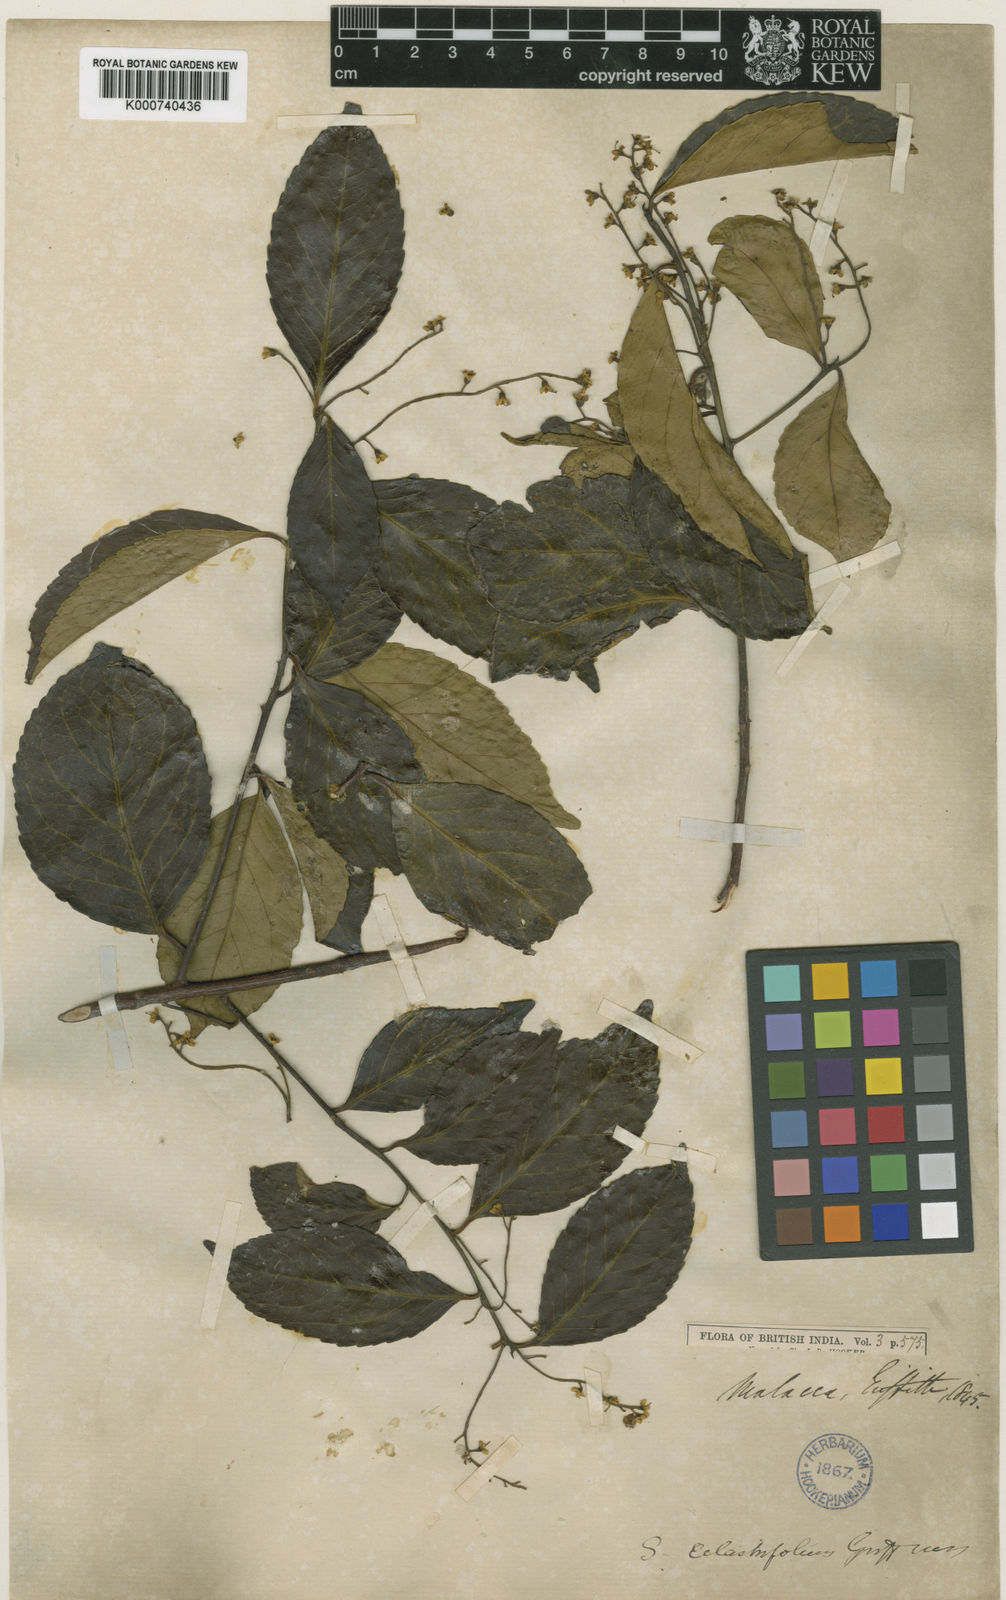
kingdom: Plantae
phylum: Tracheophyta
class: Magnoliopsida
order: Ericales
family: Symplocaceae
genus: Symplocos
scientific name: Symplocos celastrifolia
